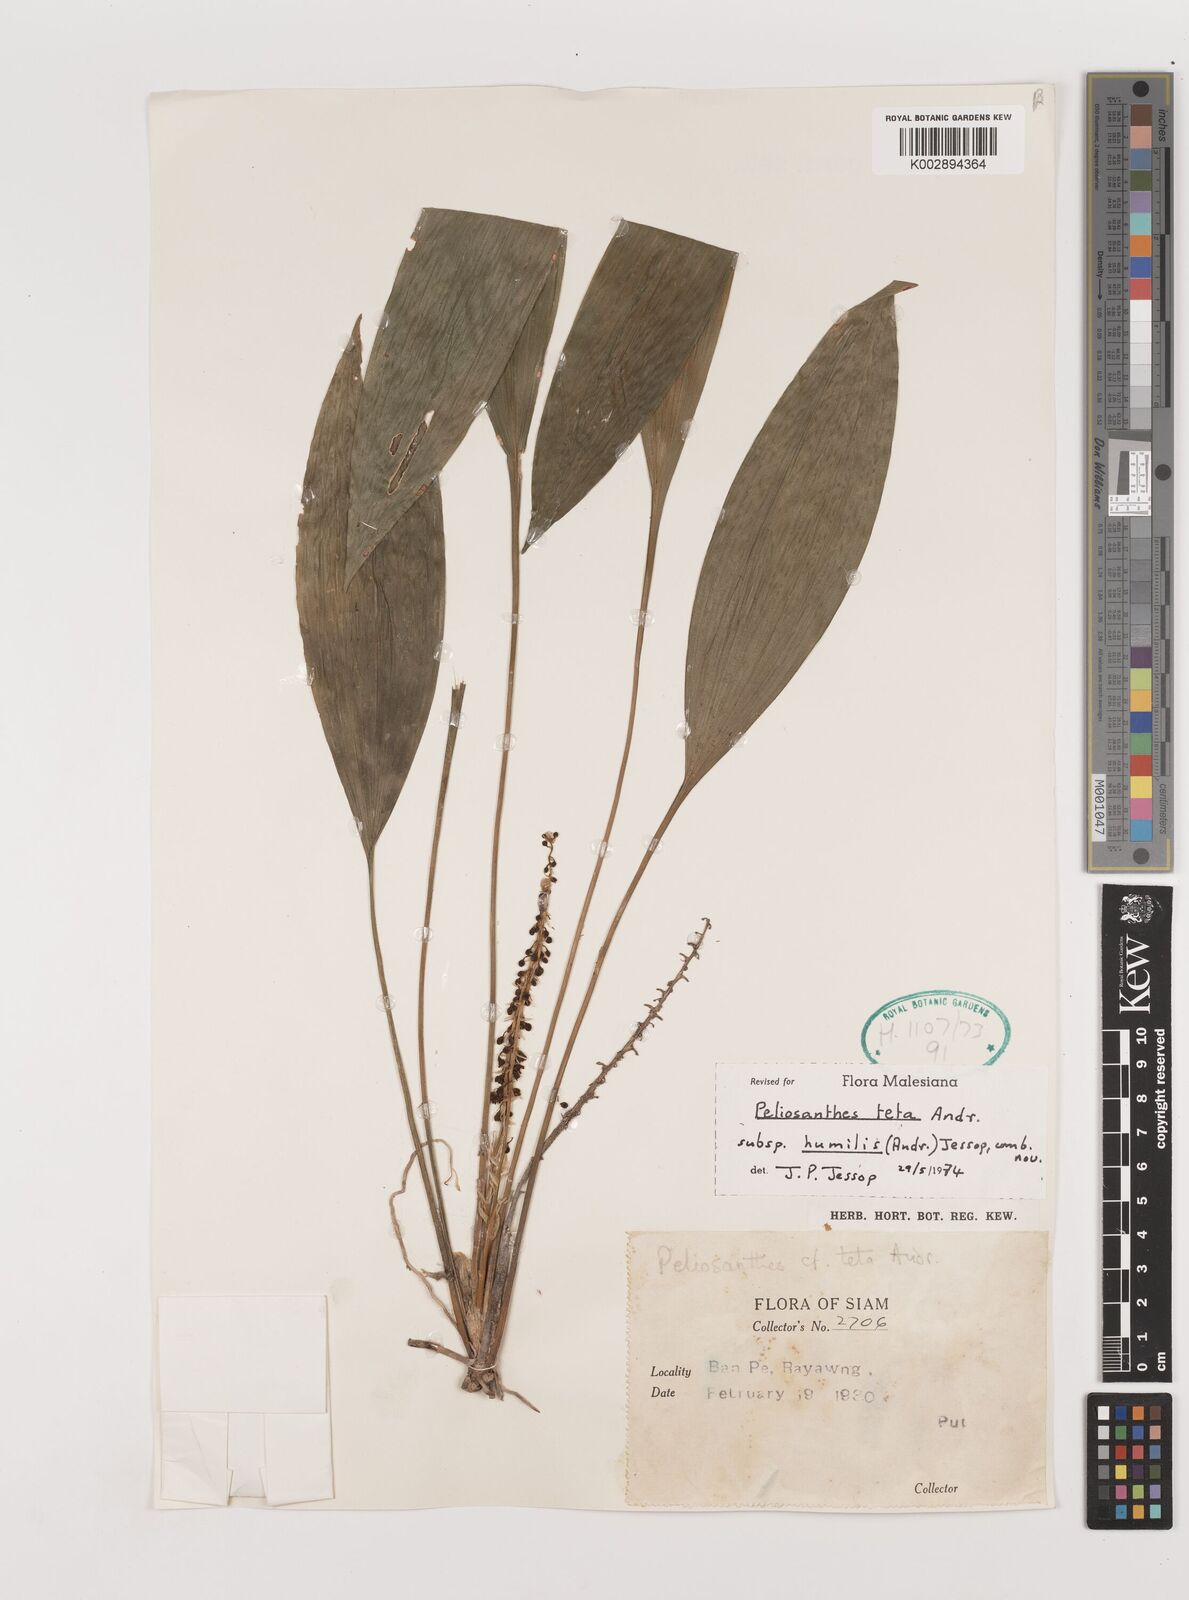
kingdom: Plantae
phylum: Tracheophyta
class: Liliopsida
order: Asparagales
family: Asparagaceae
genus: Peliosanthes
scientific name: Peliosanthes teta
